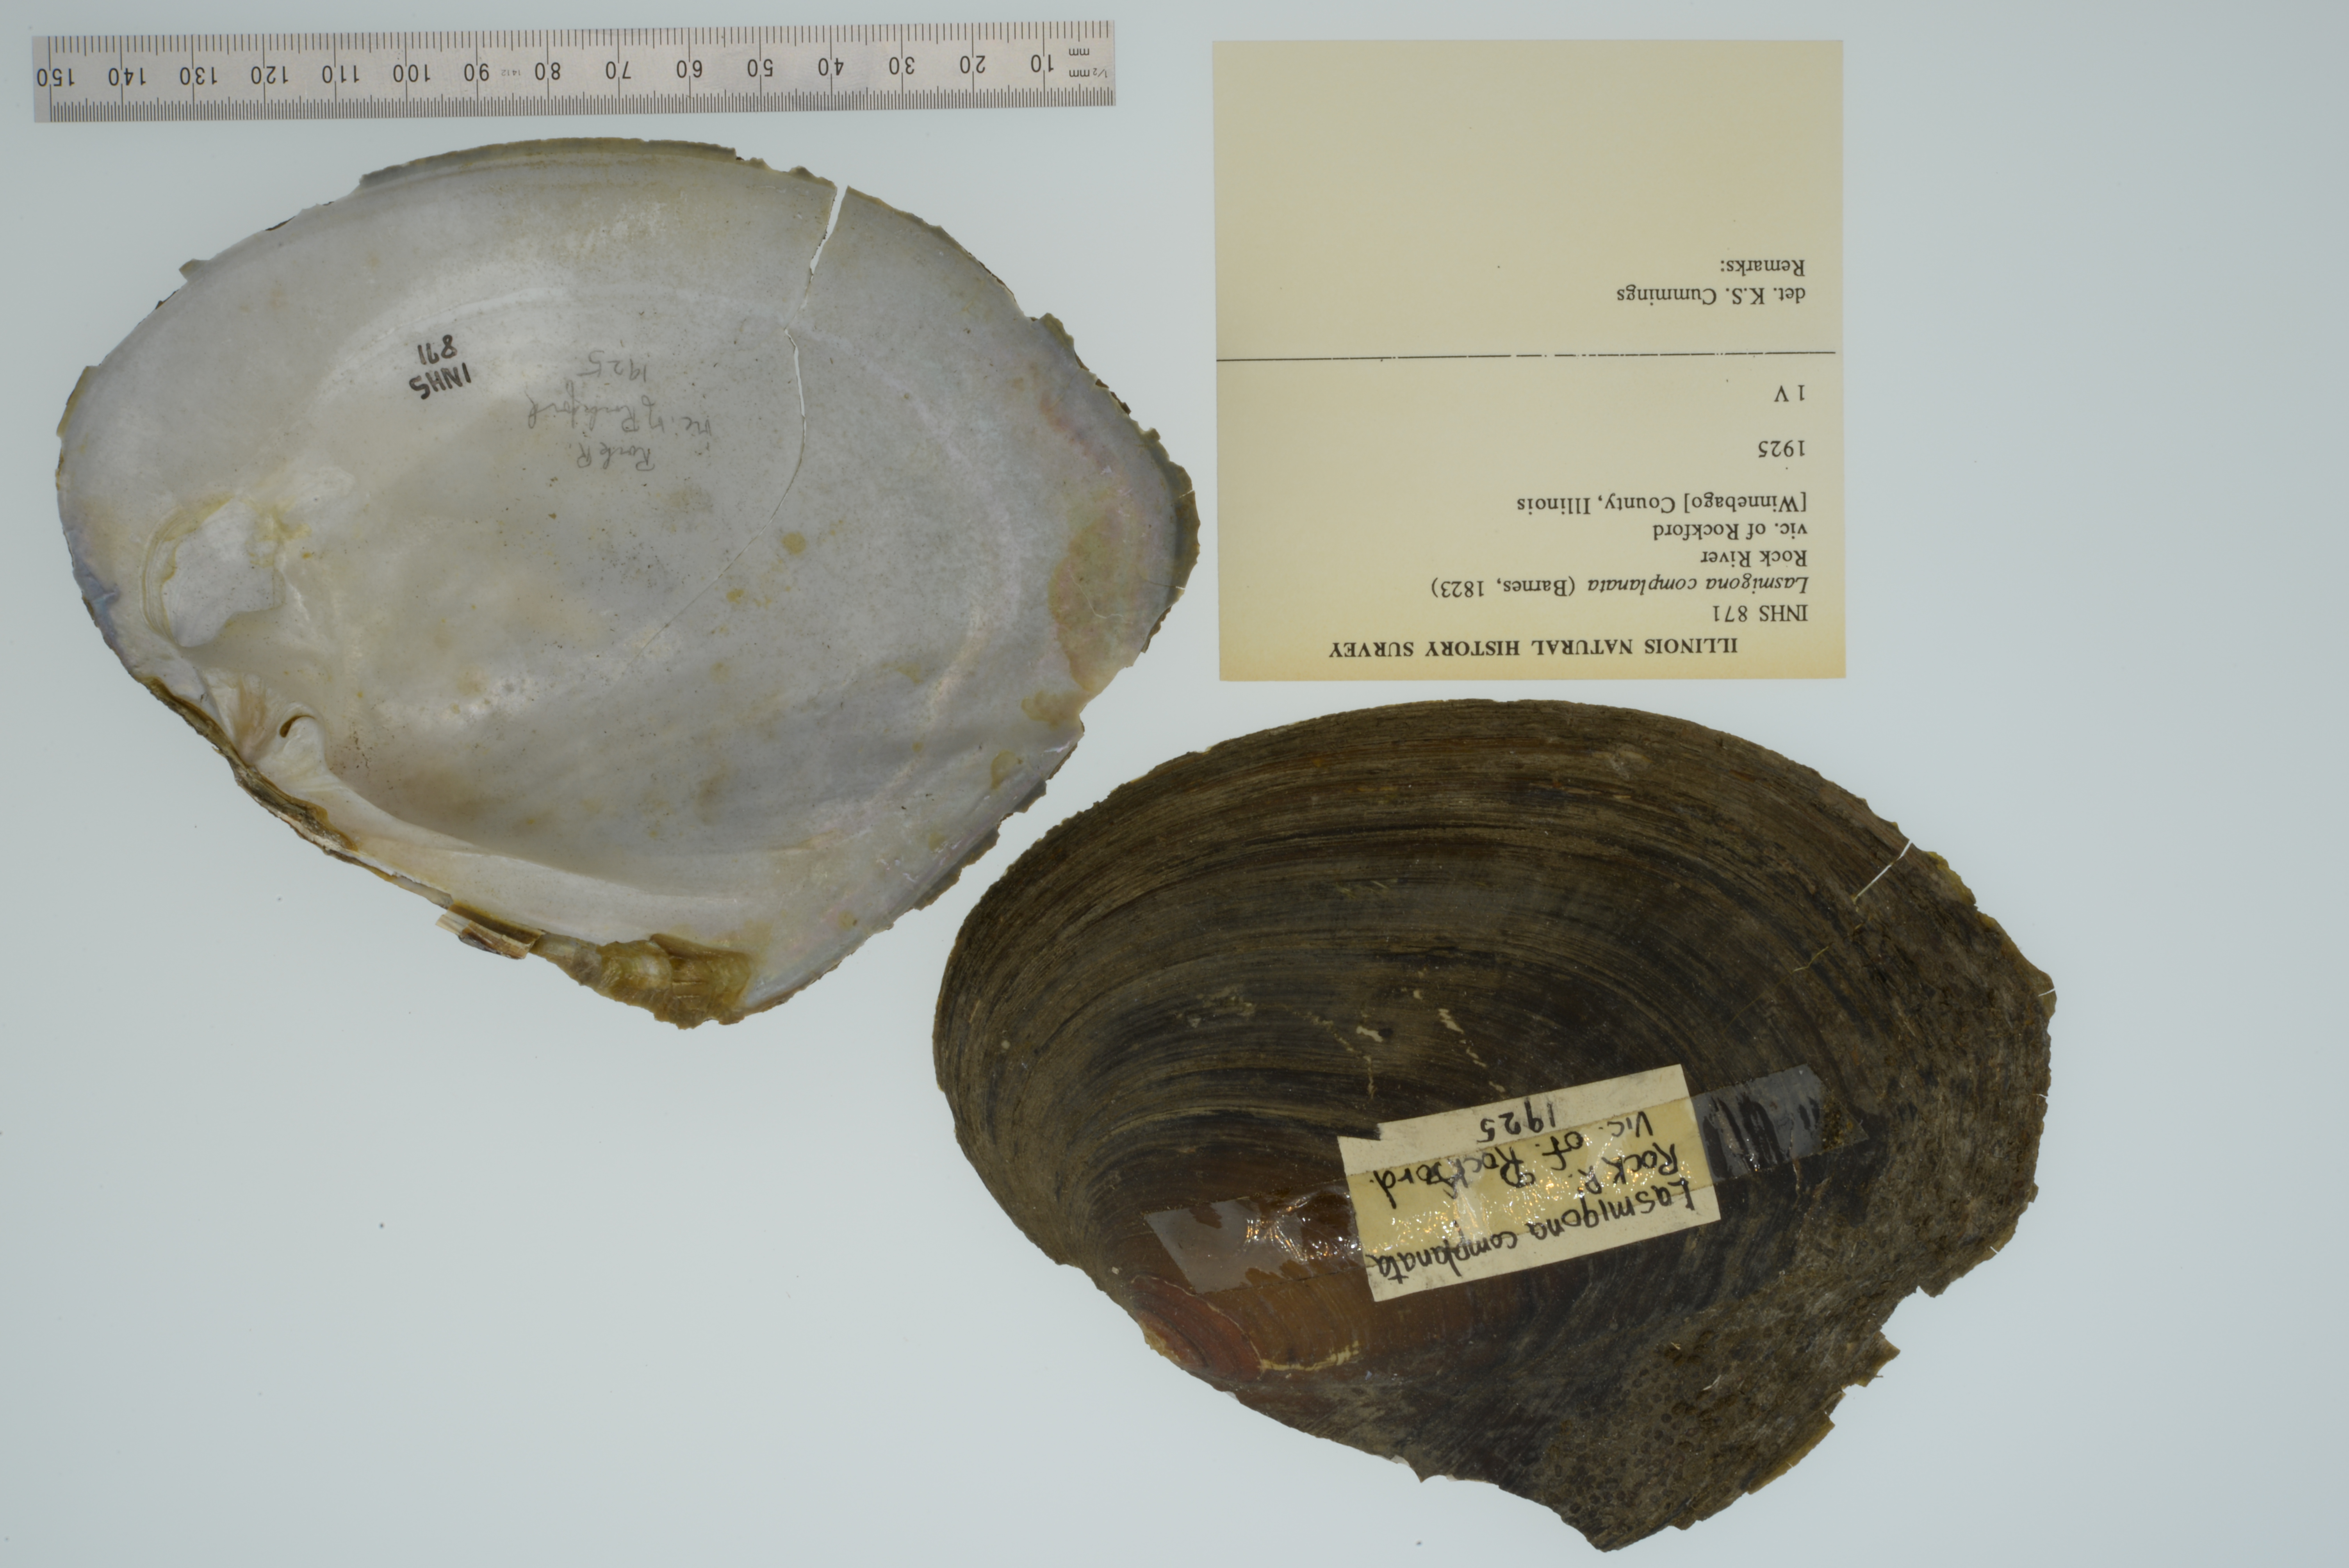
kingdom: Animalia
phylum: Mollusca
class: Bivalvia
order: Unionida
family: Unionidae
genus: Lasmigona
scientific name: Lasmigona complanata
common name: White heelsplitter
